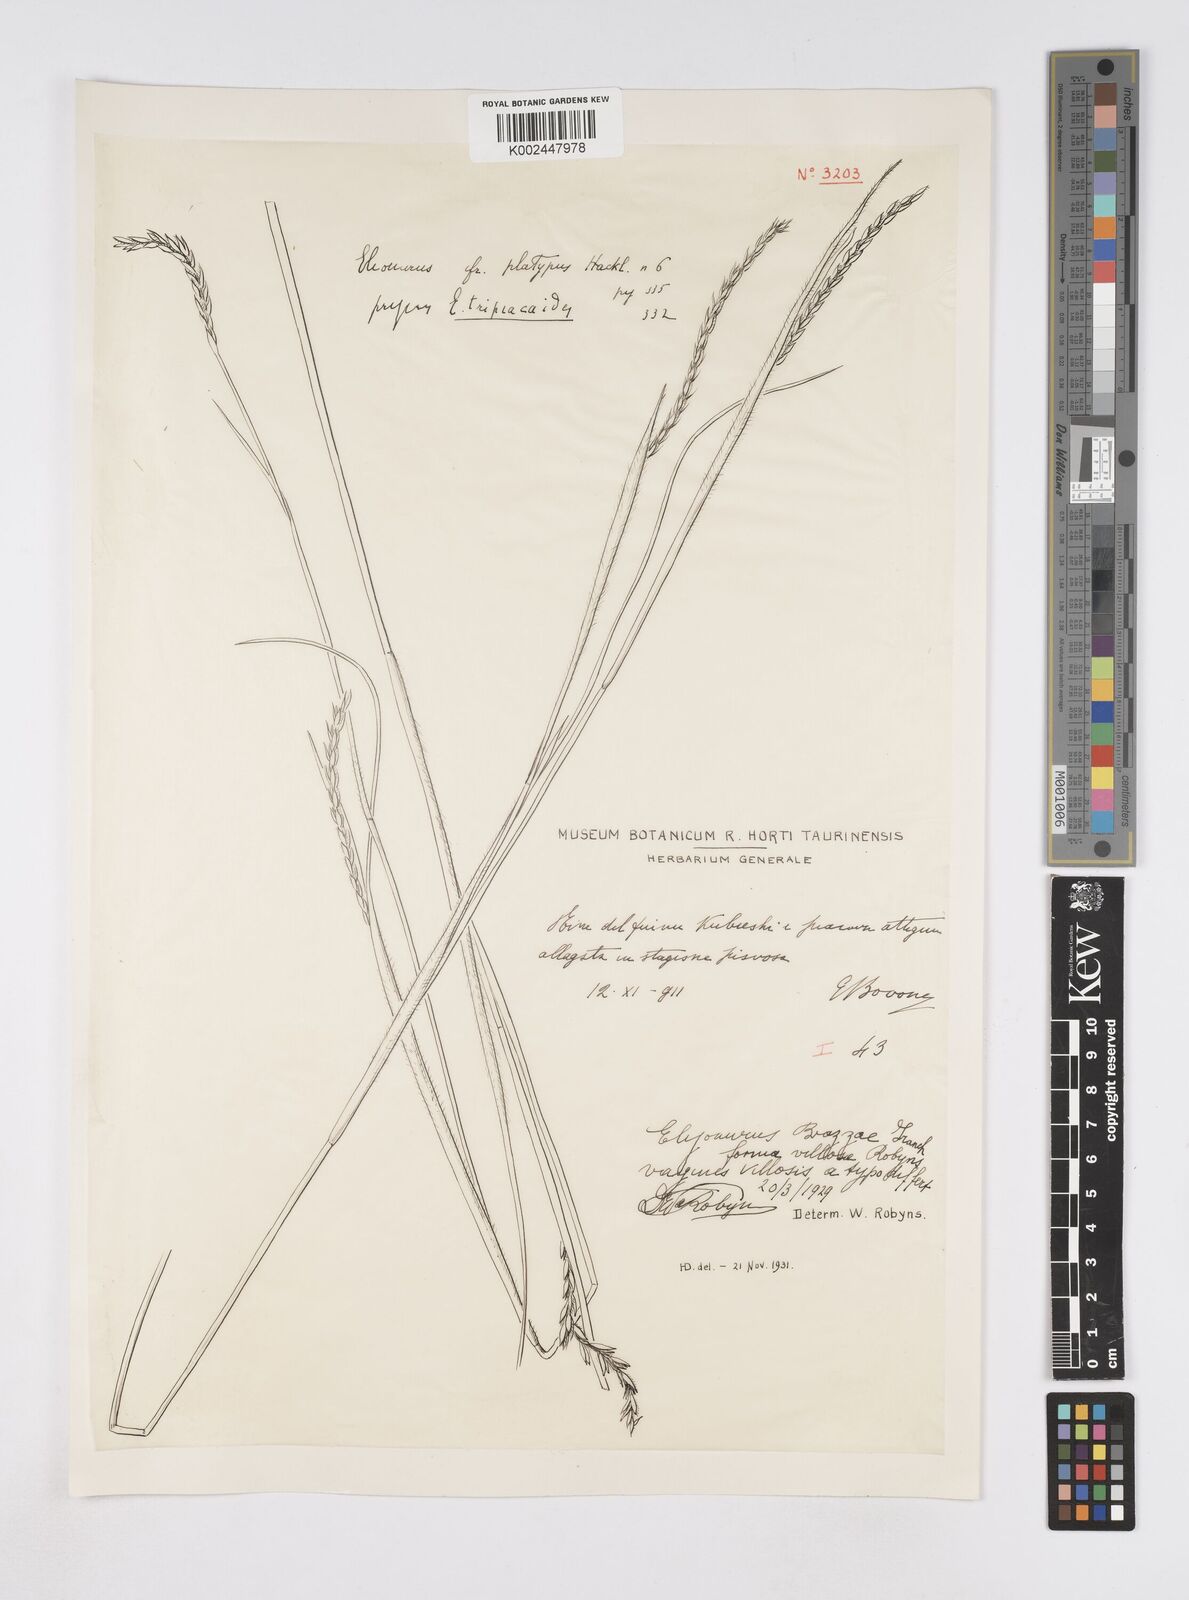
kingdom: Plantae
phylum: Tracheophyta
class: Liliopsida
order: Poales
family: Poaceae
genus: Elionurus
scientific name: Elionurus platypus
